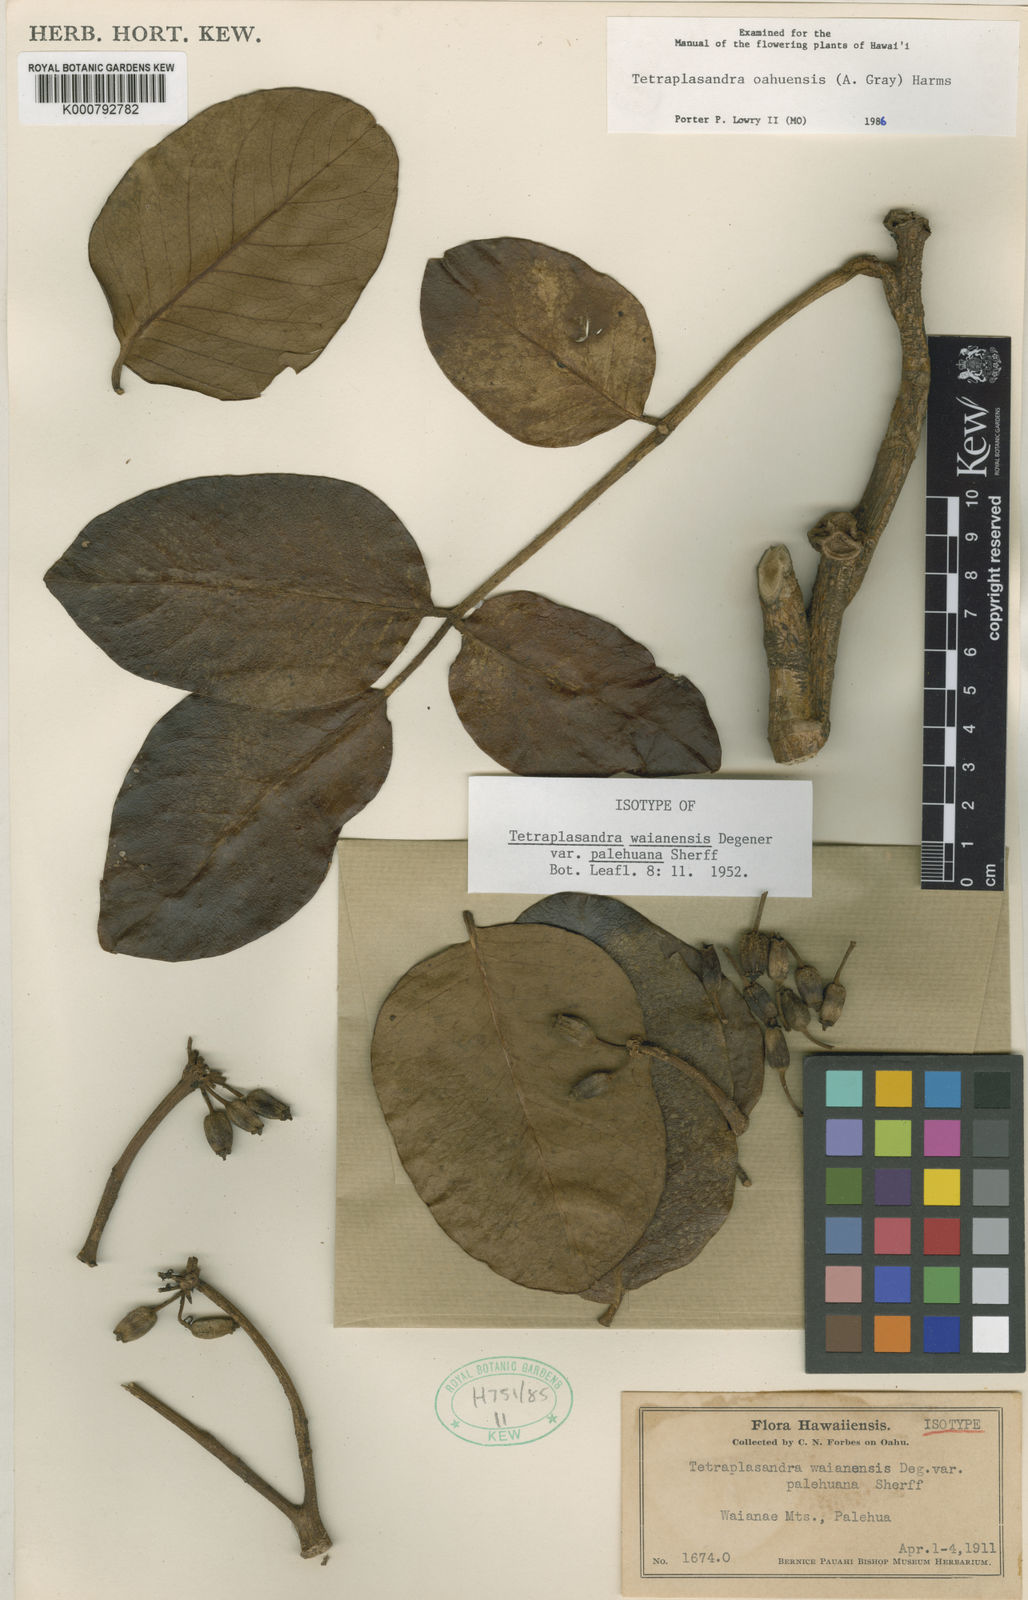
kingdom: Plantae
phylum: Tracheophyta
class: Magnoliopsida
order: Apiales
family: Araliaceae
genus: Polyscias
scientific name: Polyscias oahuensis
